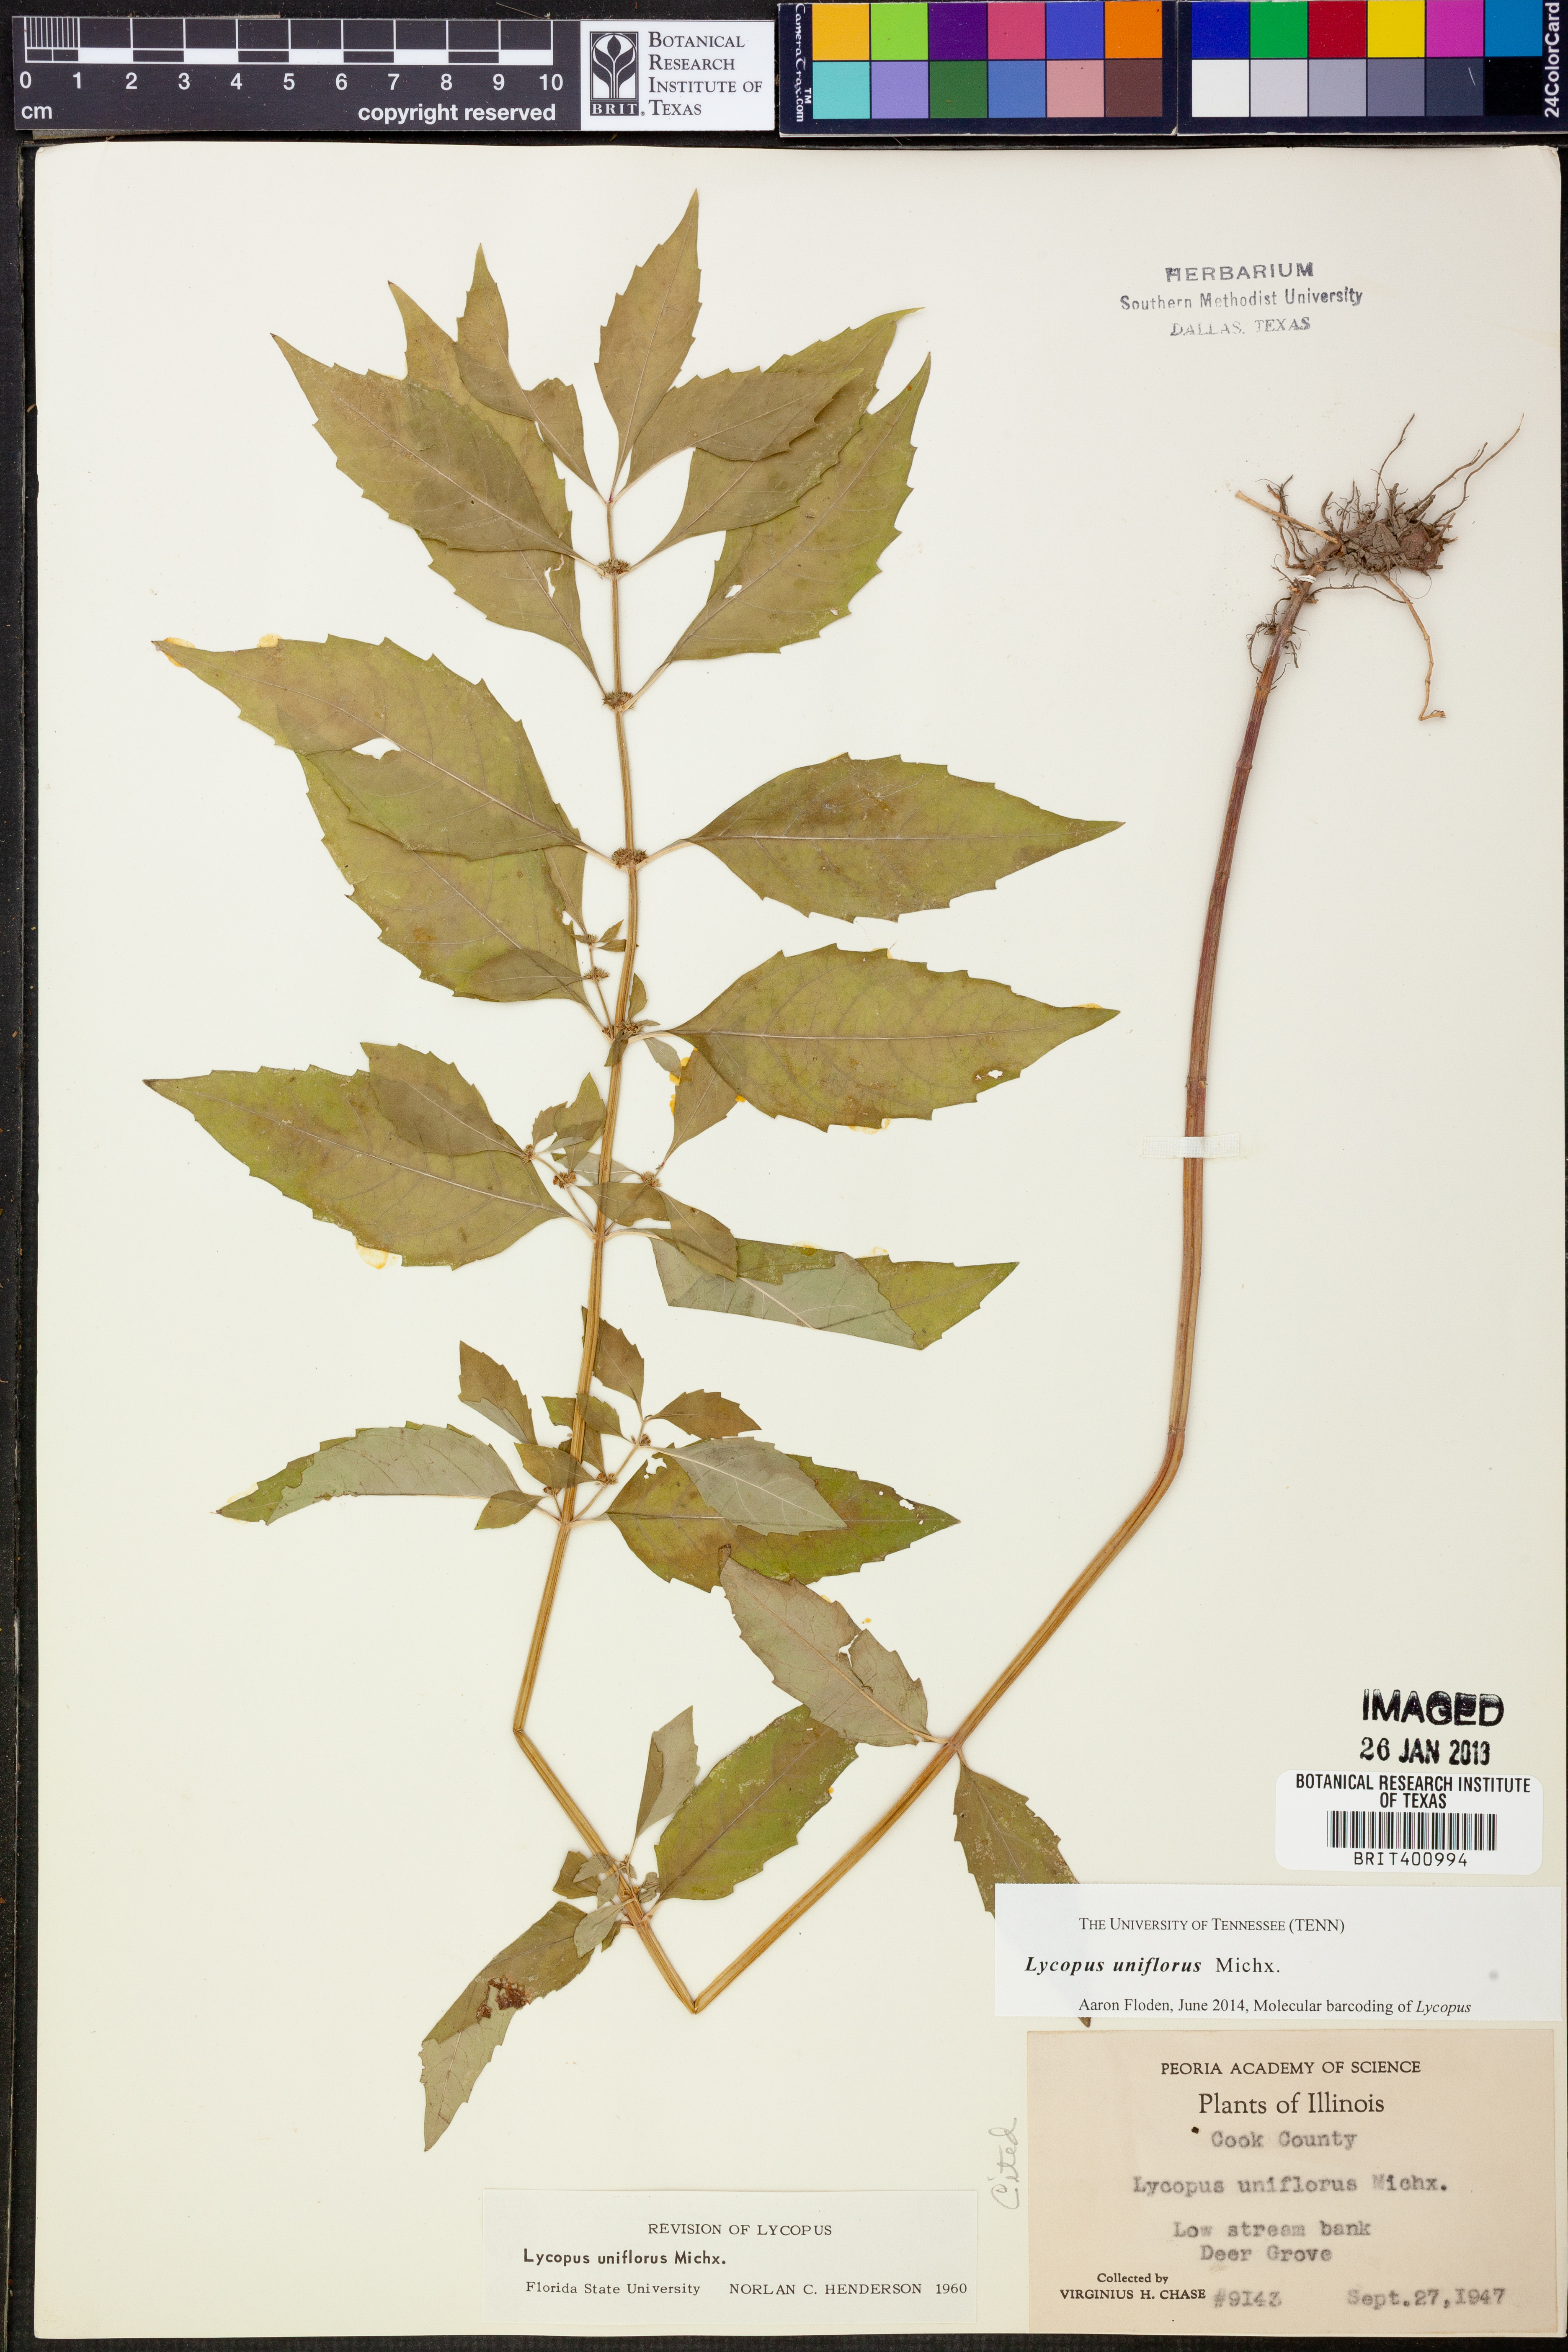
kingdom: Plantae
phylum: Tracheophyta
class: Magnoliopsida
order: Lamiales
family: Lamiaceae
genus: Lycopus
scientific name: Lycopus uniflorus
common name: Northern bugleweed
